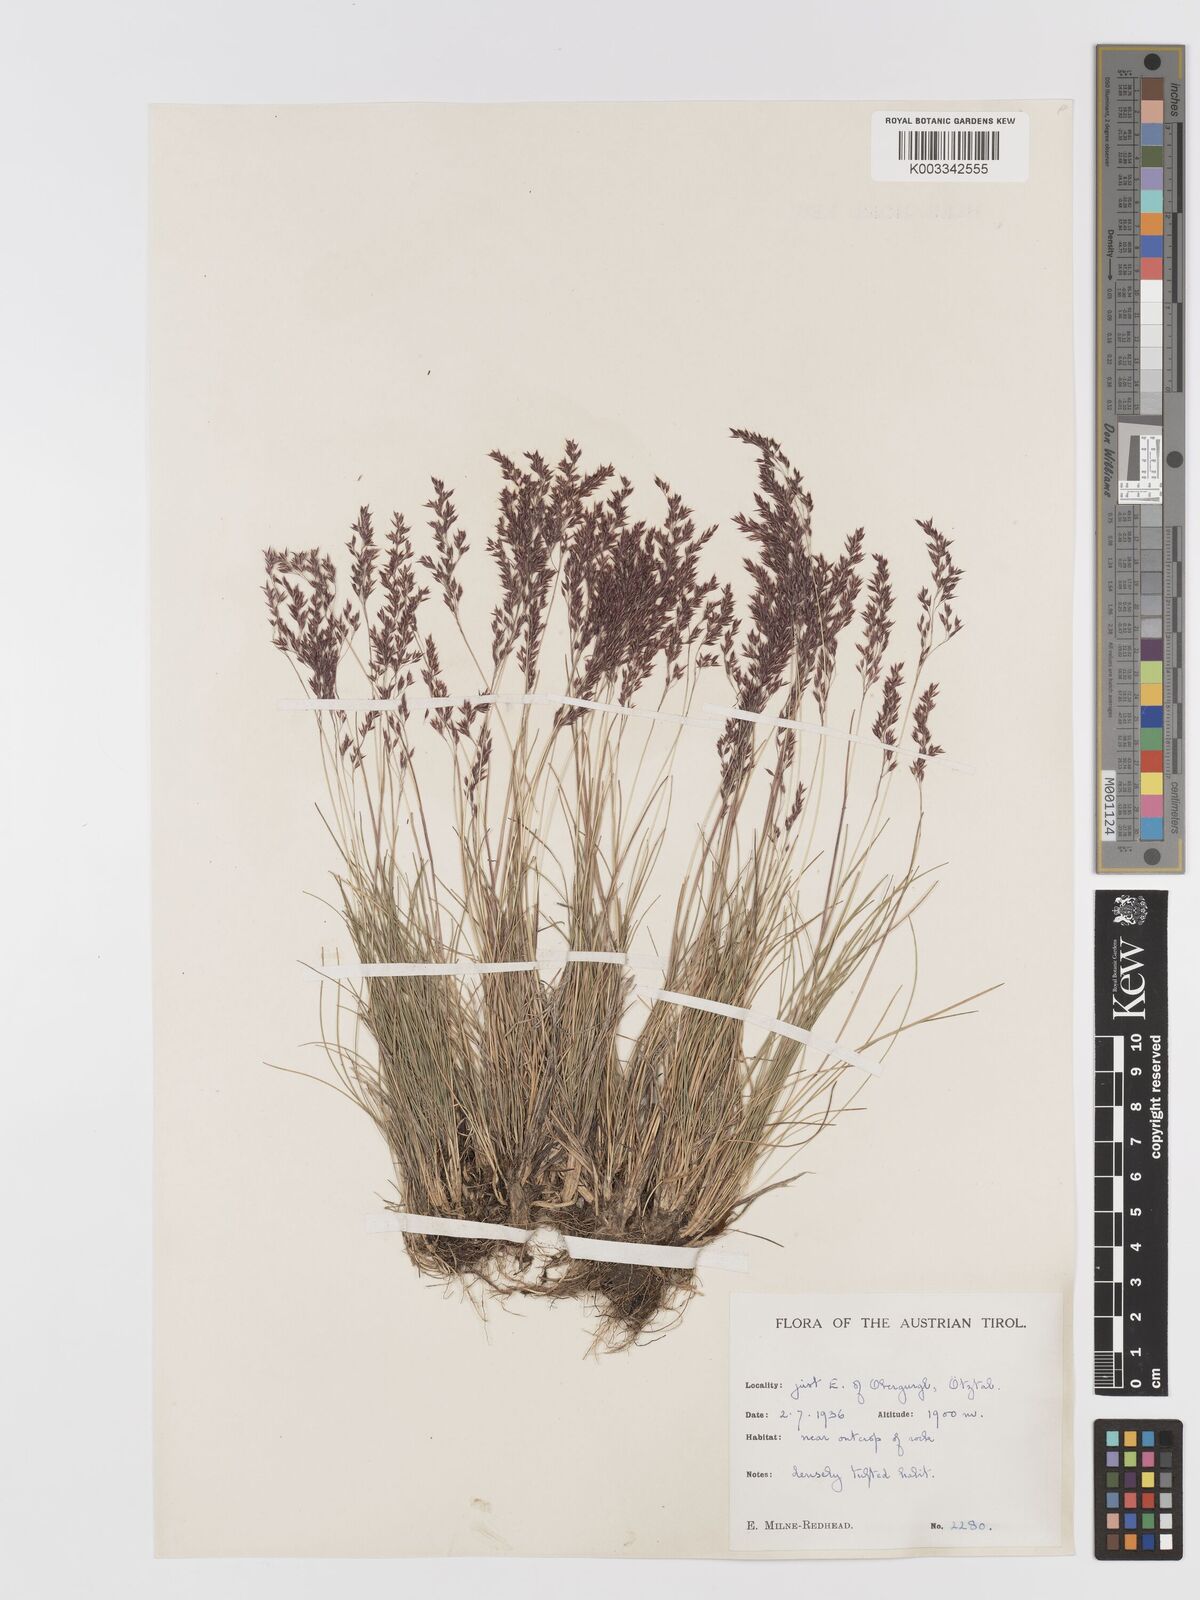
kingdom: Plantae
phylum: Tracheophyta
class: Liliopsida
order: Poales
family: Poaceae
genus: Agrostis
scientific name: Agrostis
